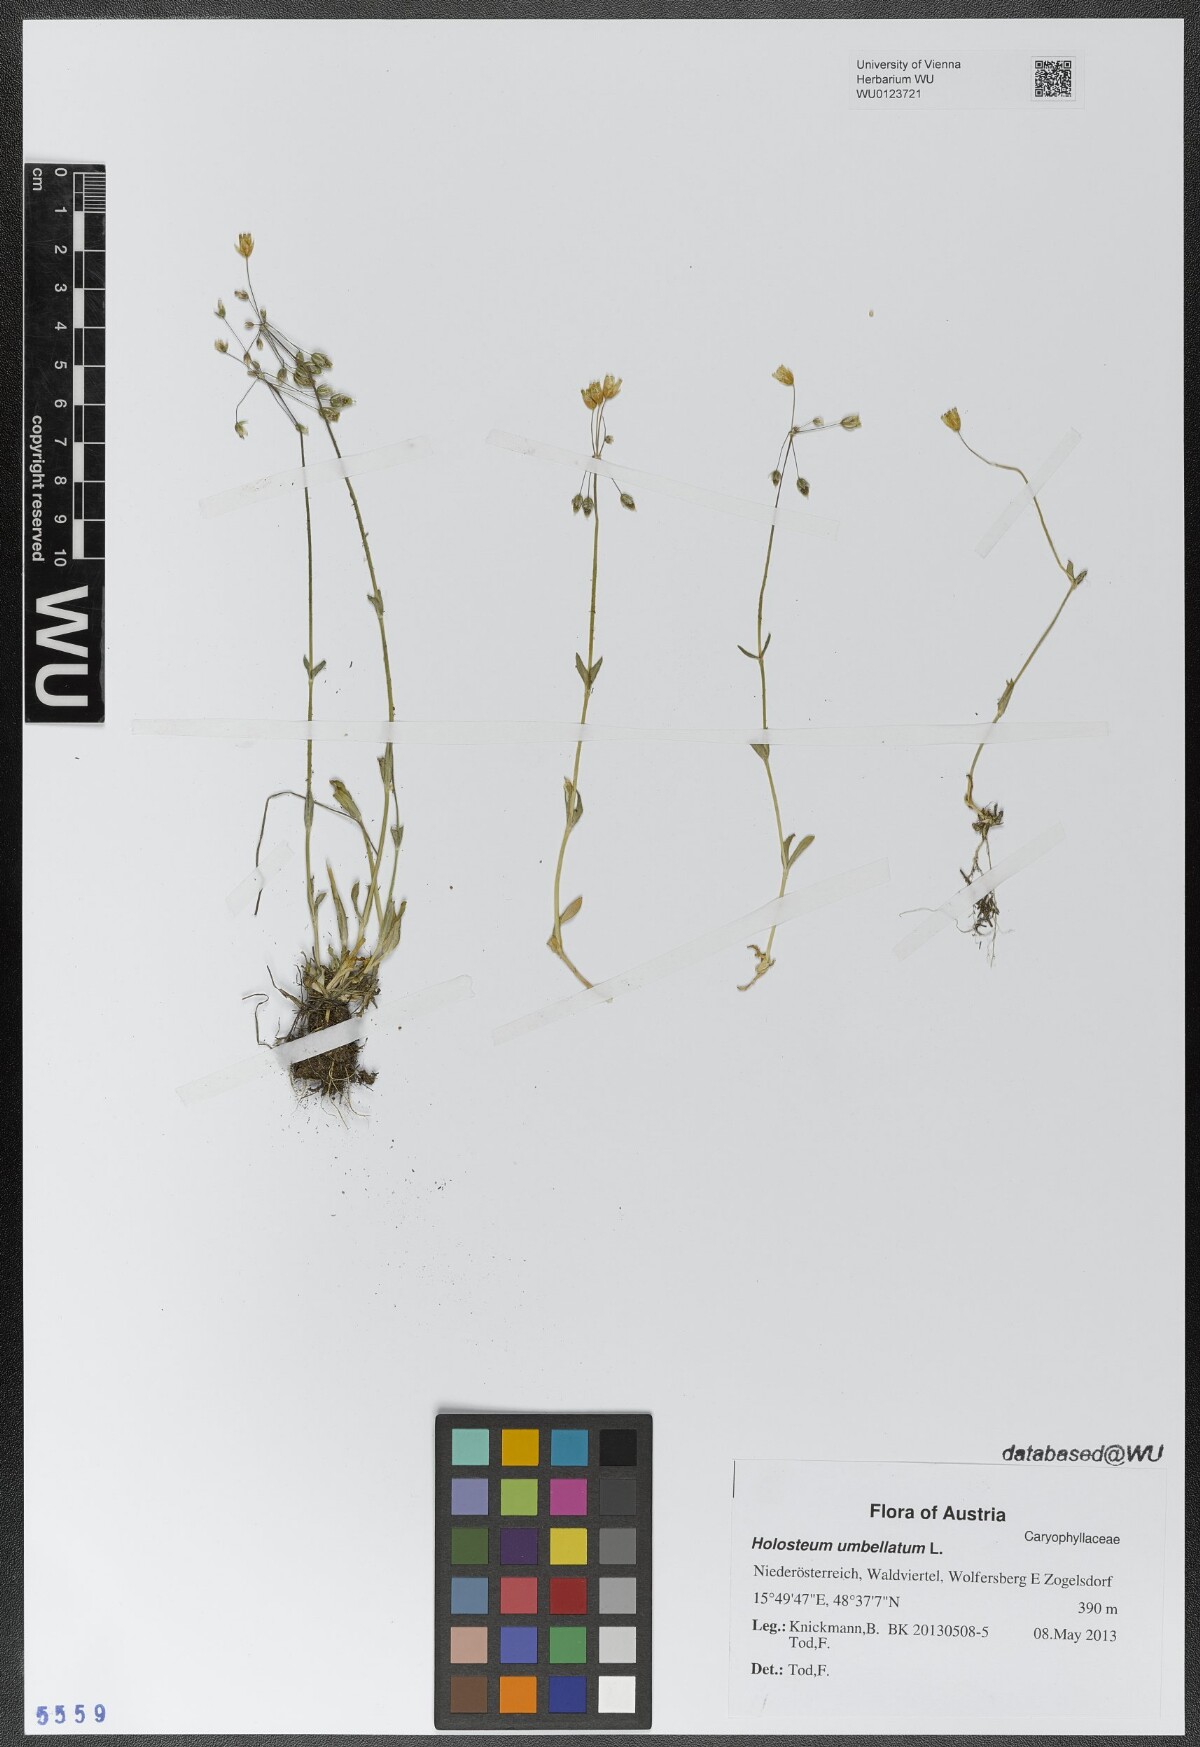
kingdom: Plantae
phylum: Tracheophyta
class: Magnoliopsida
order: Caryophyllales
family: Caryophyllaceae
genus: Holosteum
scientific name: Holosteum umbellatum
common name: Jagged chickweed
